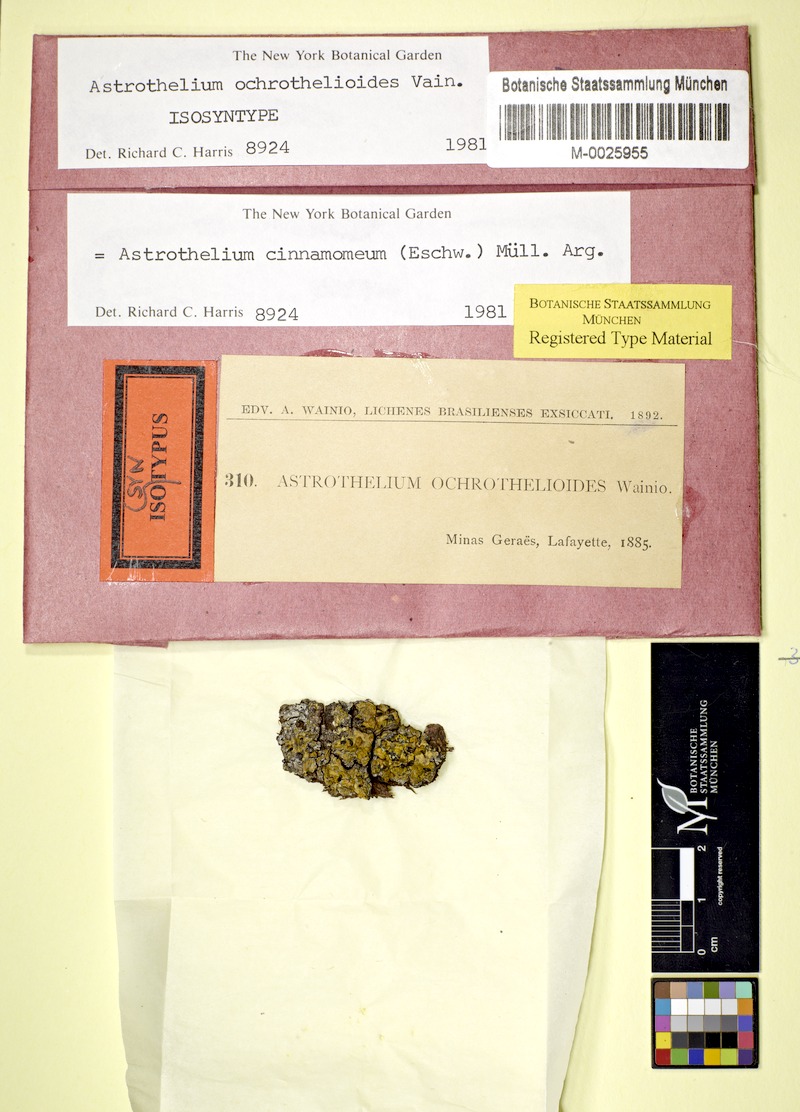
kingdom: Fungi
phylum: Ascomycota
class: Dothideomycetes
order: Trypetheliales
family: Trypetheliaceae
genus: Astrothelium
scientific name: Astrothelium cinnamomeum
